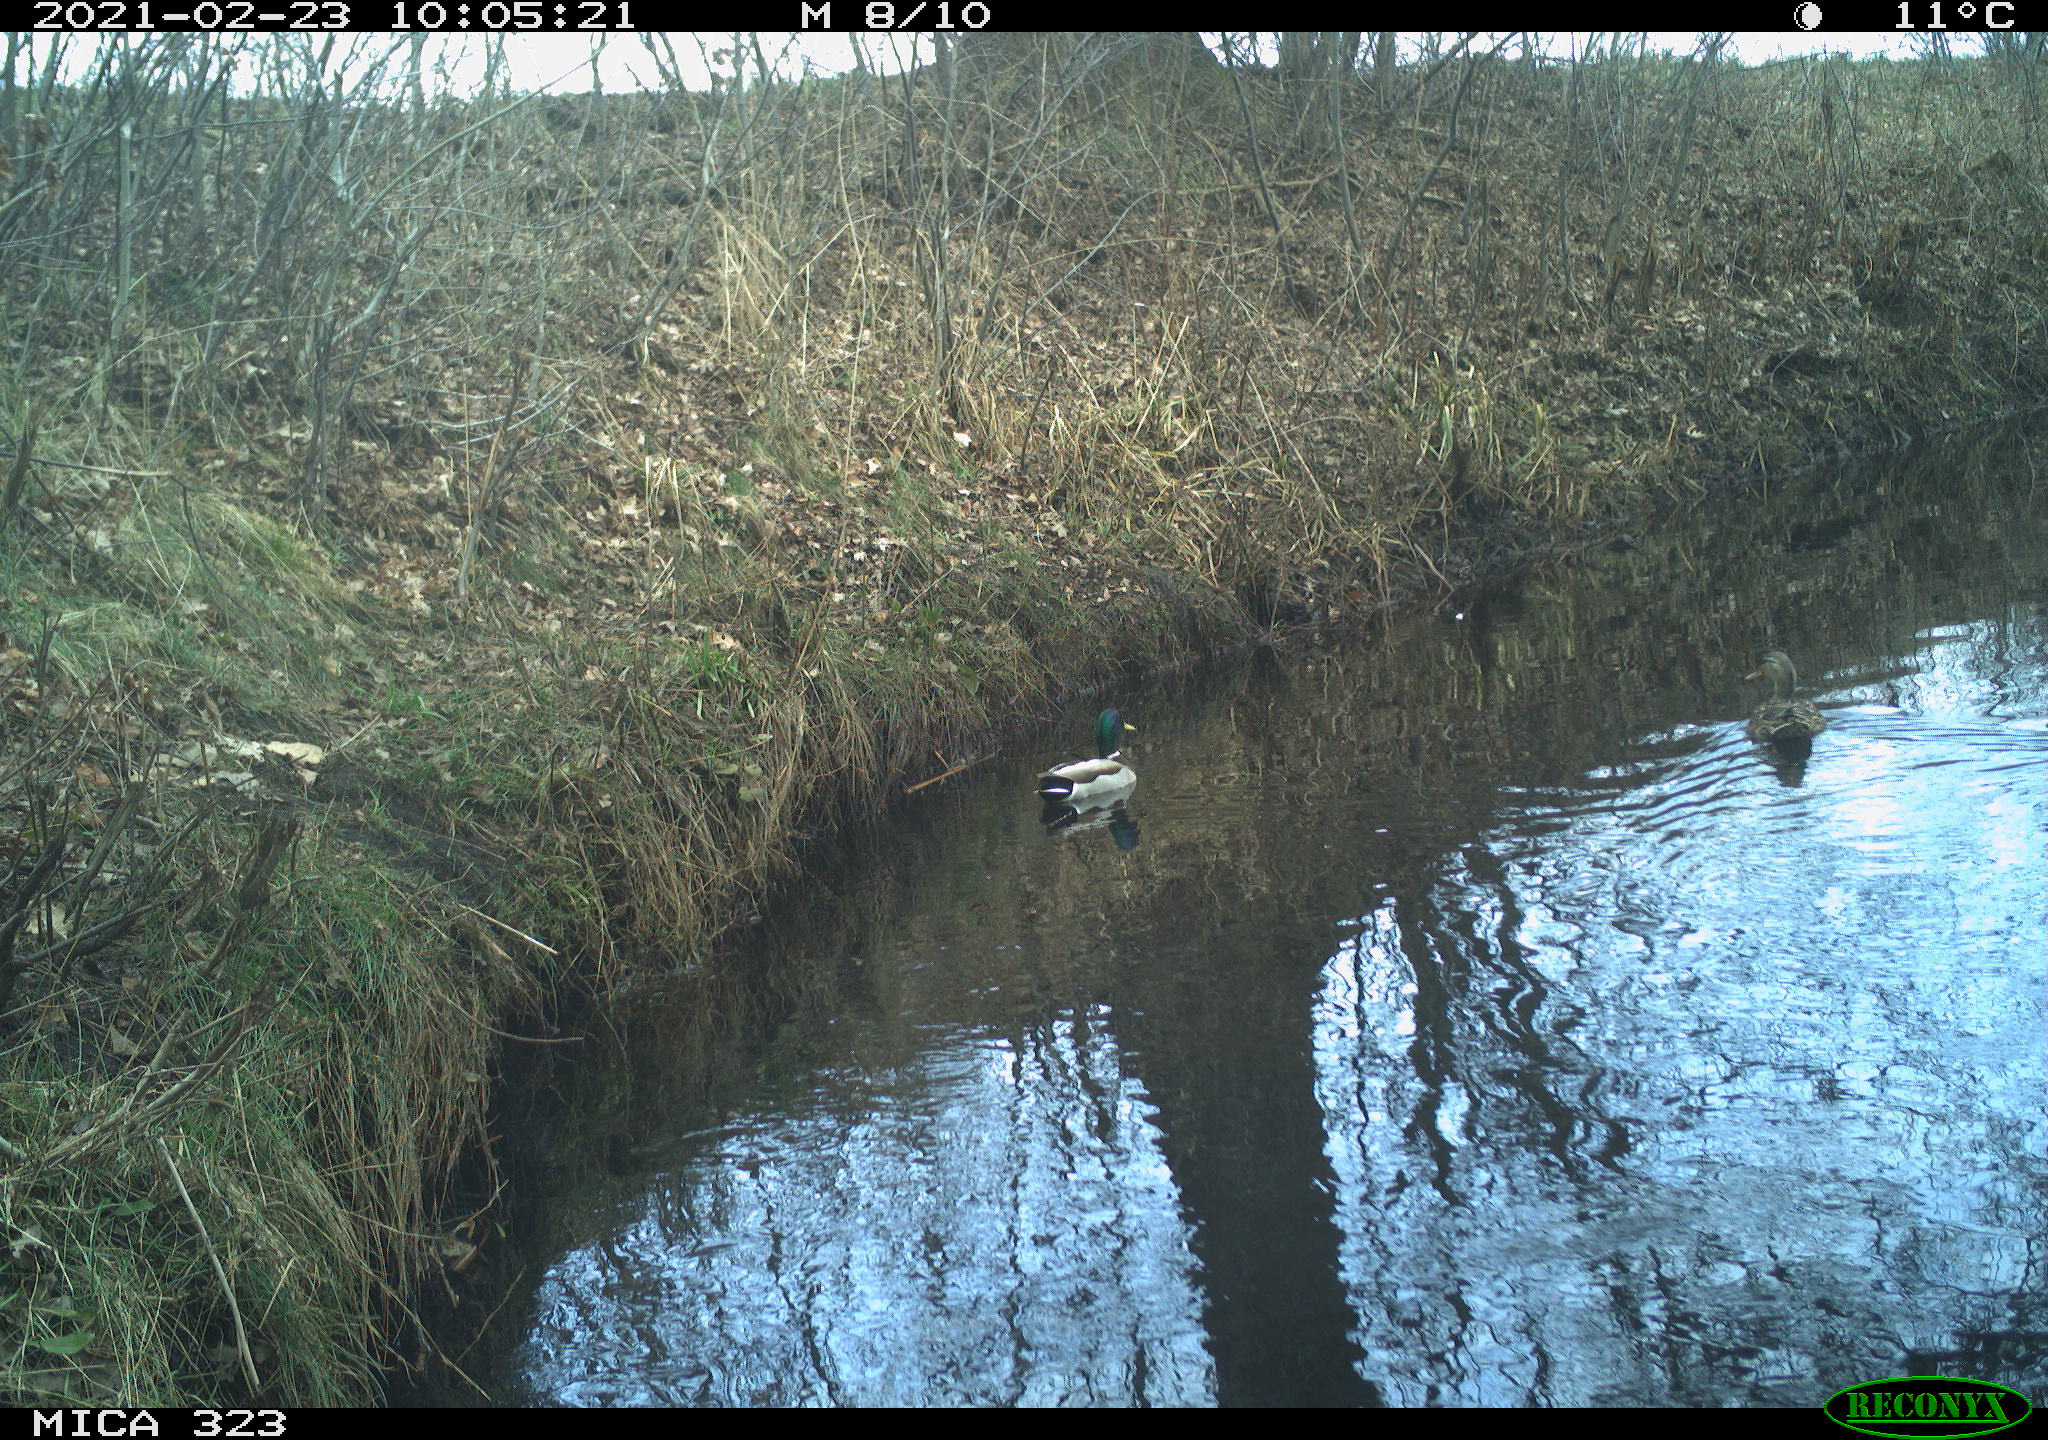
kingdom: Animalia
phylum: Chordata
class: Aves
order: Anseriformes
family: Anatidae
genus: Anas
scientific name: Anas platyrhynchos
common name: Mallard
